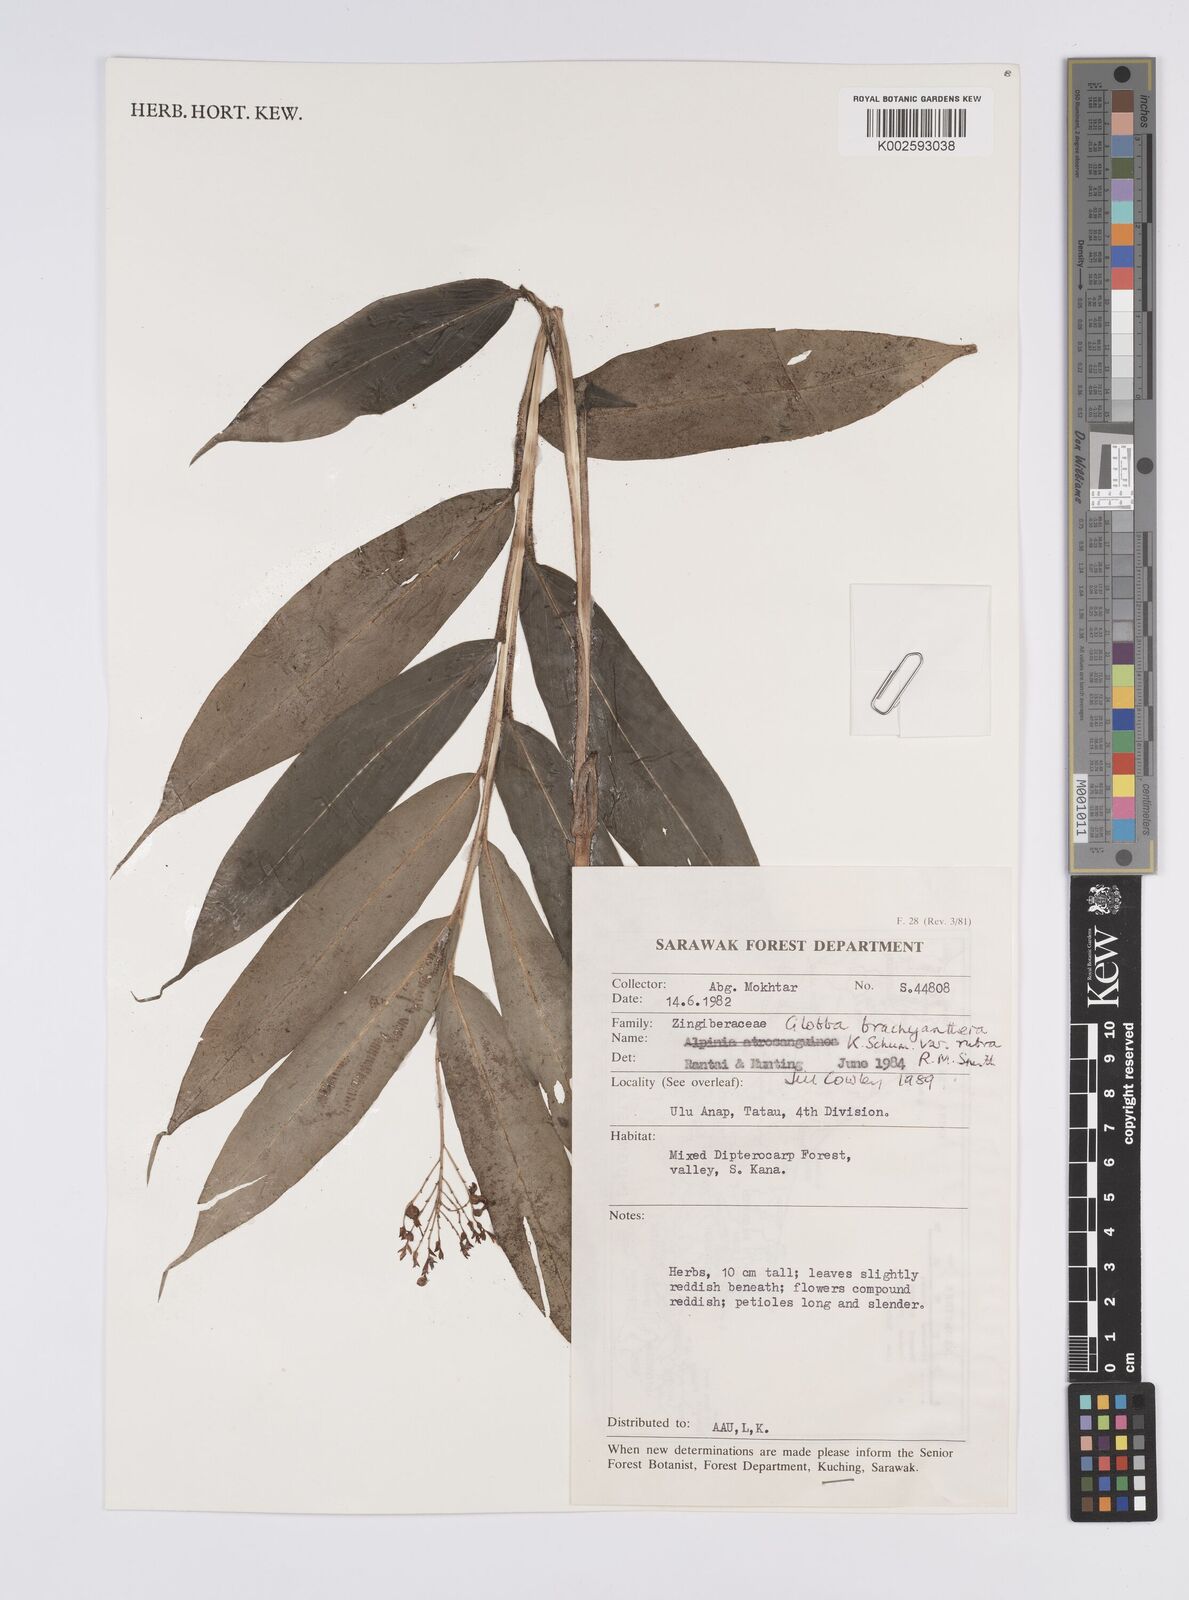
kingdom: Plantae
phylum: Tracheophyta
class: Liliopsida
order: Zingiberales
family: Zingiberaceae
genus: Globba
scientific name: Globba brachyanthera
